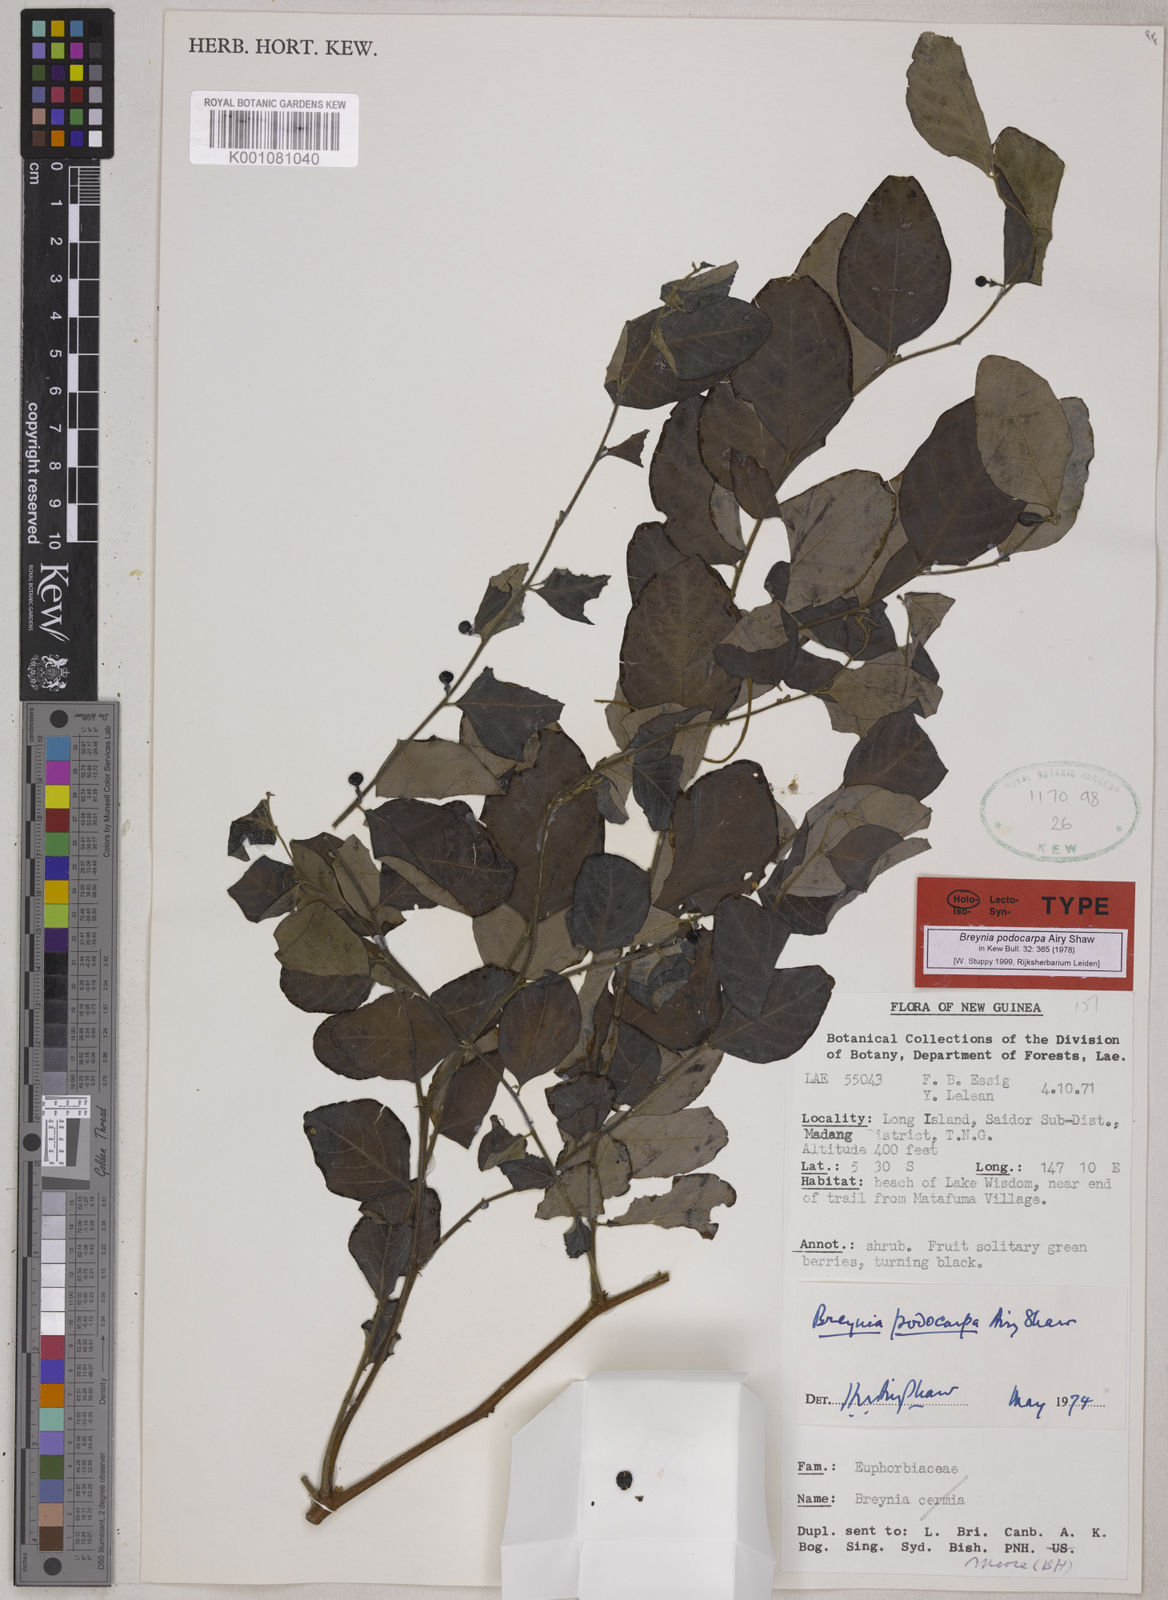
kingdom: Plantae
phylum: Tracheophyta
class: Magnoliopsida
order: Malpighiales
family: Phyllanthaceae
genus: Breynia
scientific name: Breynia podocarpa
